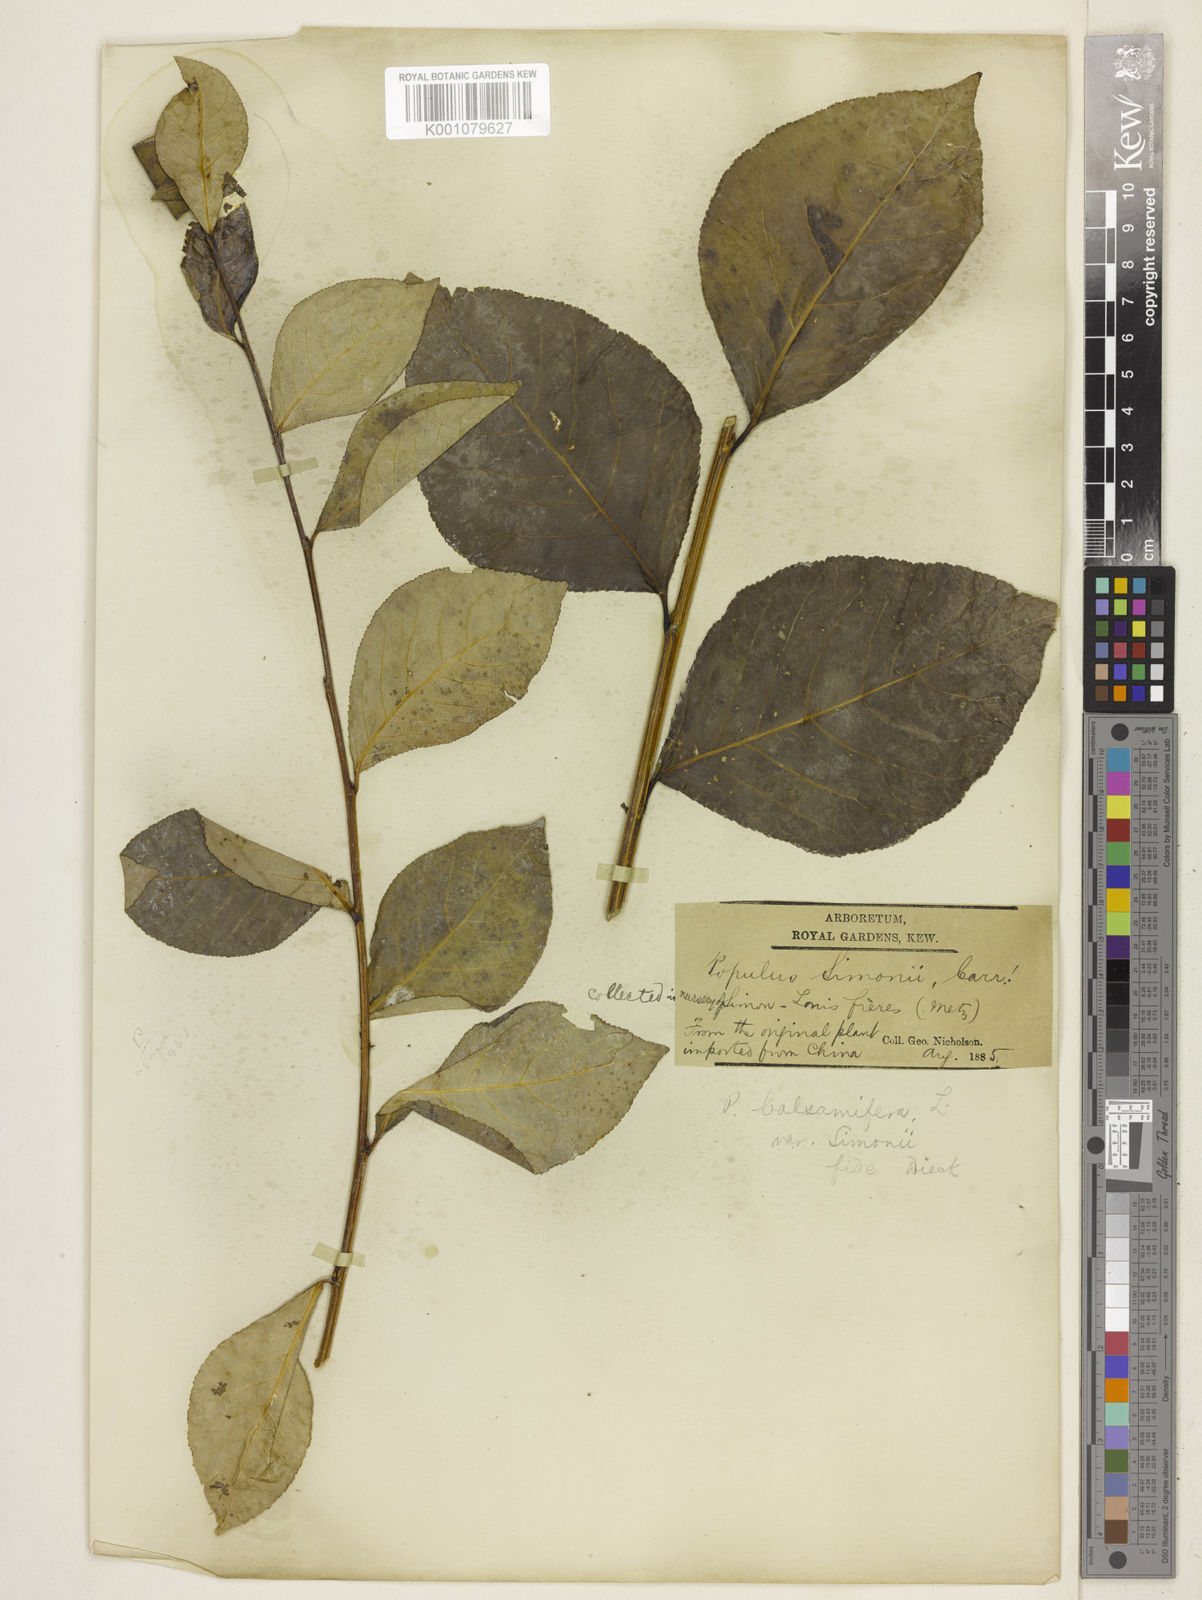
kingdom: Plantae
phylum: Tracheophyta
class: Magnoliopsida
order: Malpighiales
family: Salicaceae
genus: Populus
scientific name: Populus
